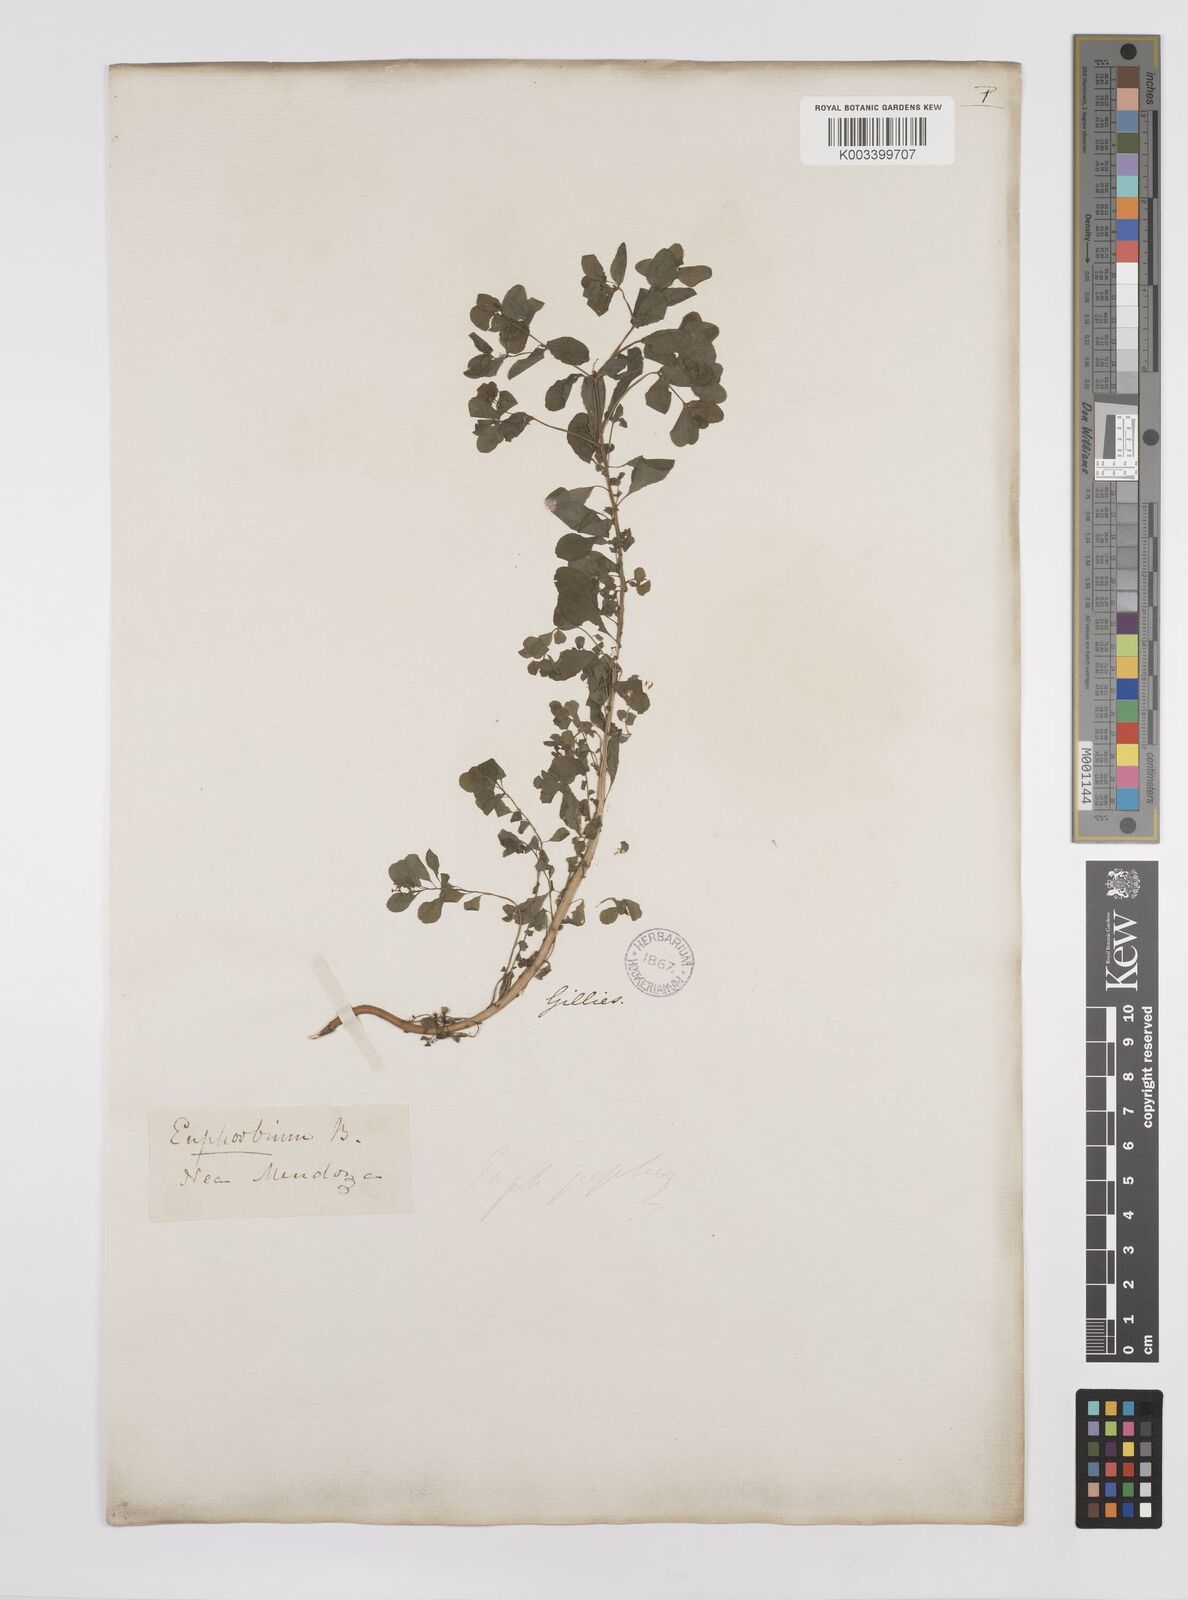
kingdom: Plantae
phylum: Tracheophyta
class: Magnoliopsida
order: Malpighiales
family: Euphorbiaceae
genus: Euphorbia
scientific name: Euphorbia peplus
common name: Petty spurge
